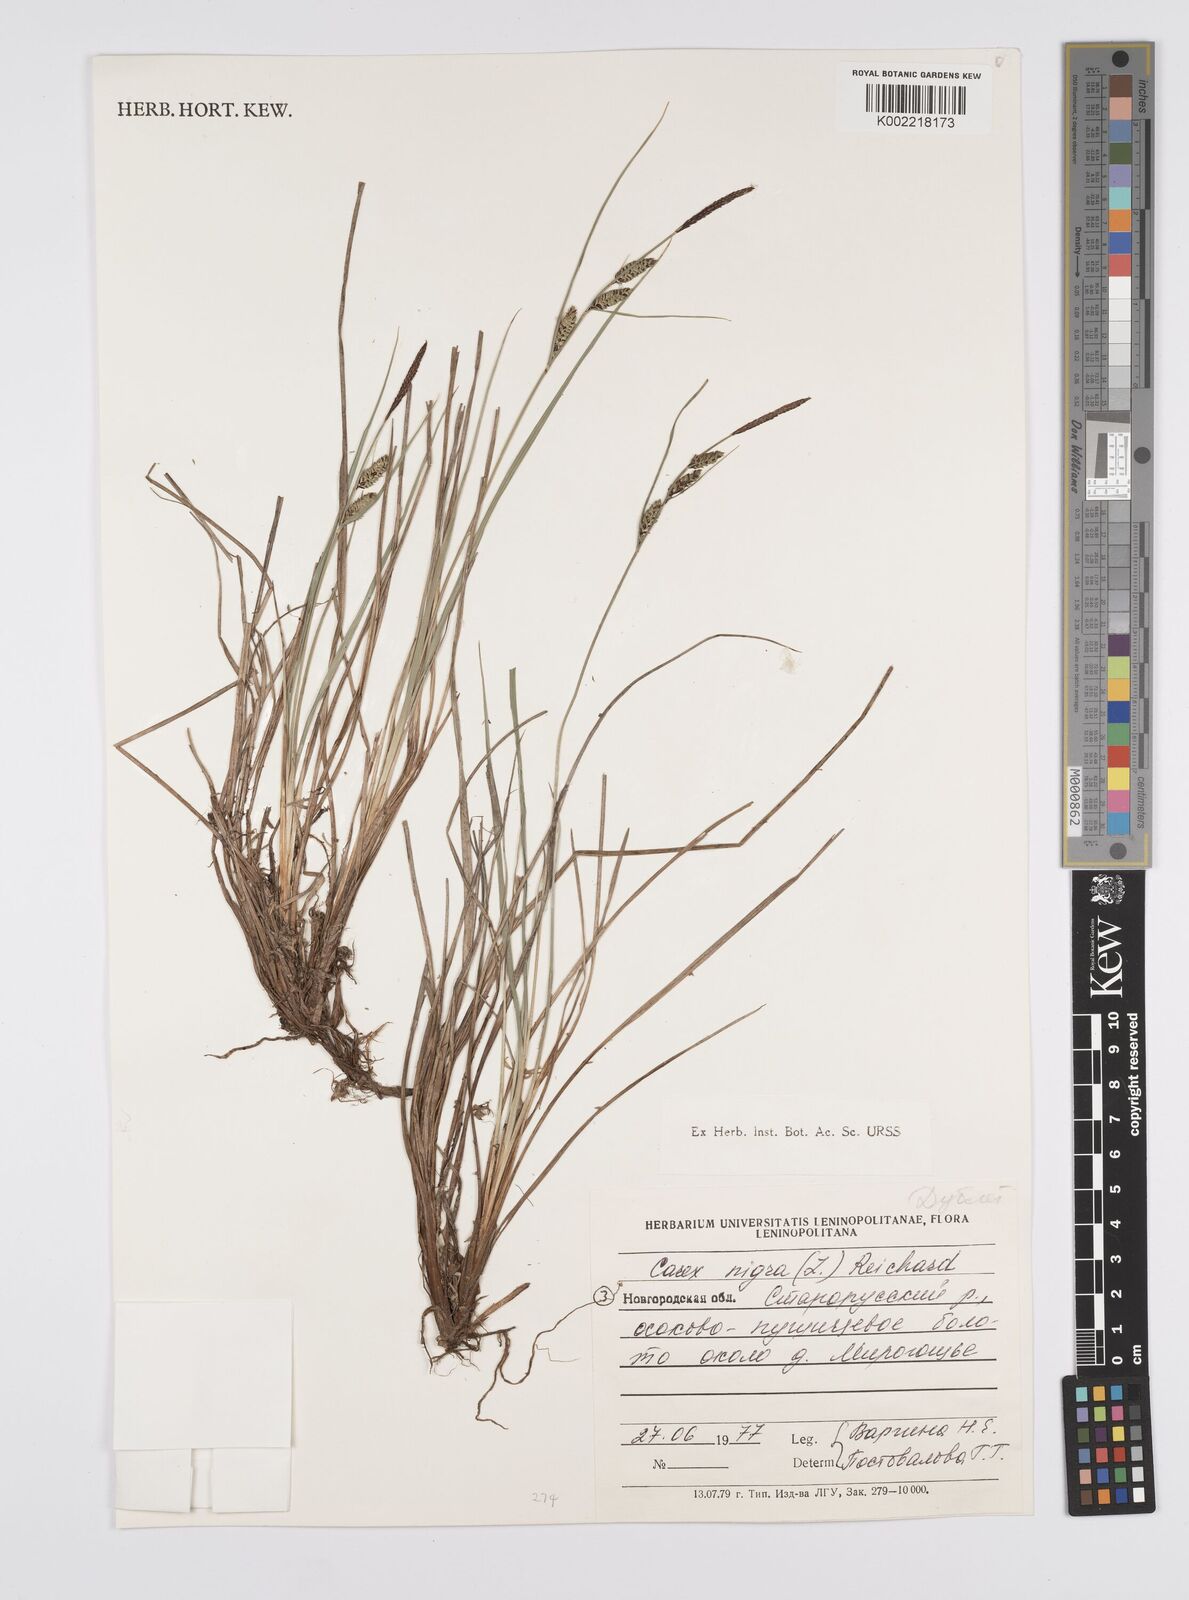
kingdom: Plantae
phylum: Tracheophyta
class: Liliopsida
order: Poales
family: Cyperaceae
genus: Carex
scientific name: Carex nigra
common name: Common sedge
